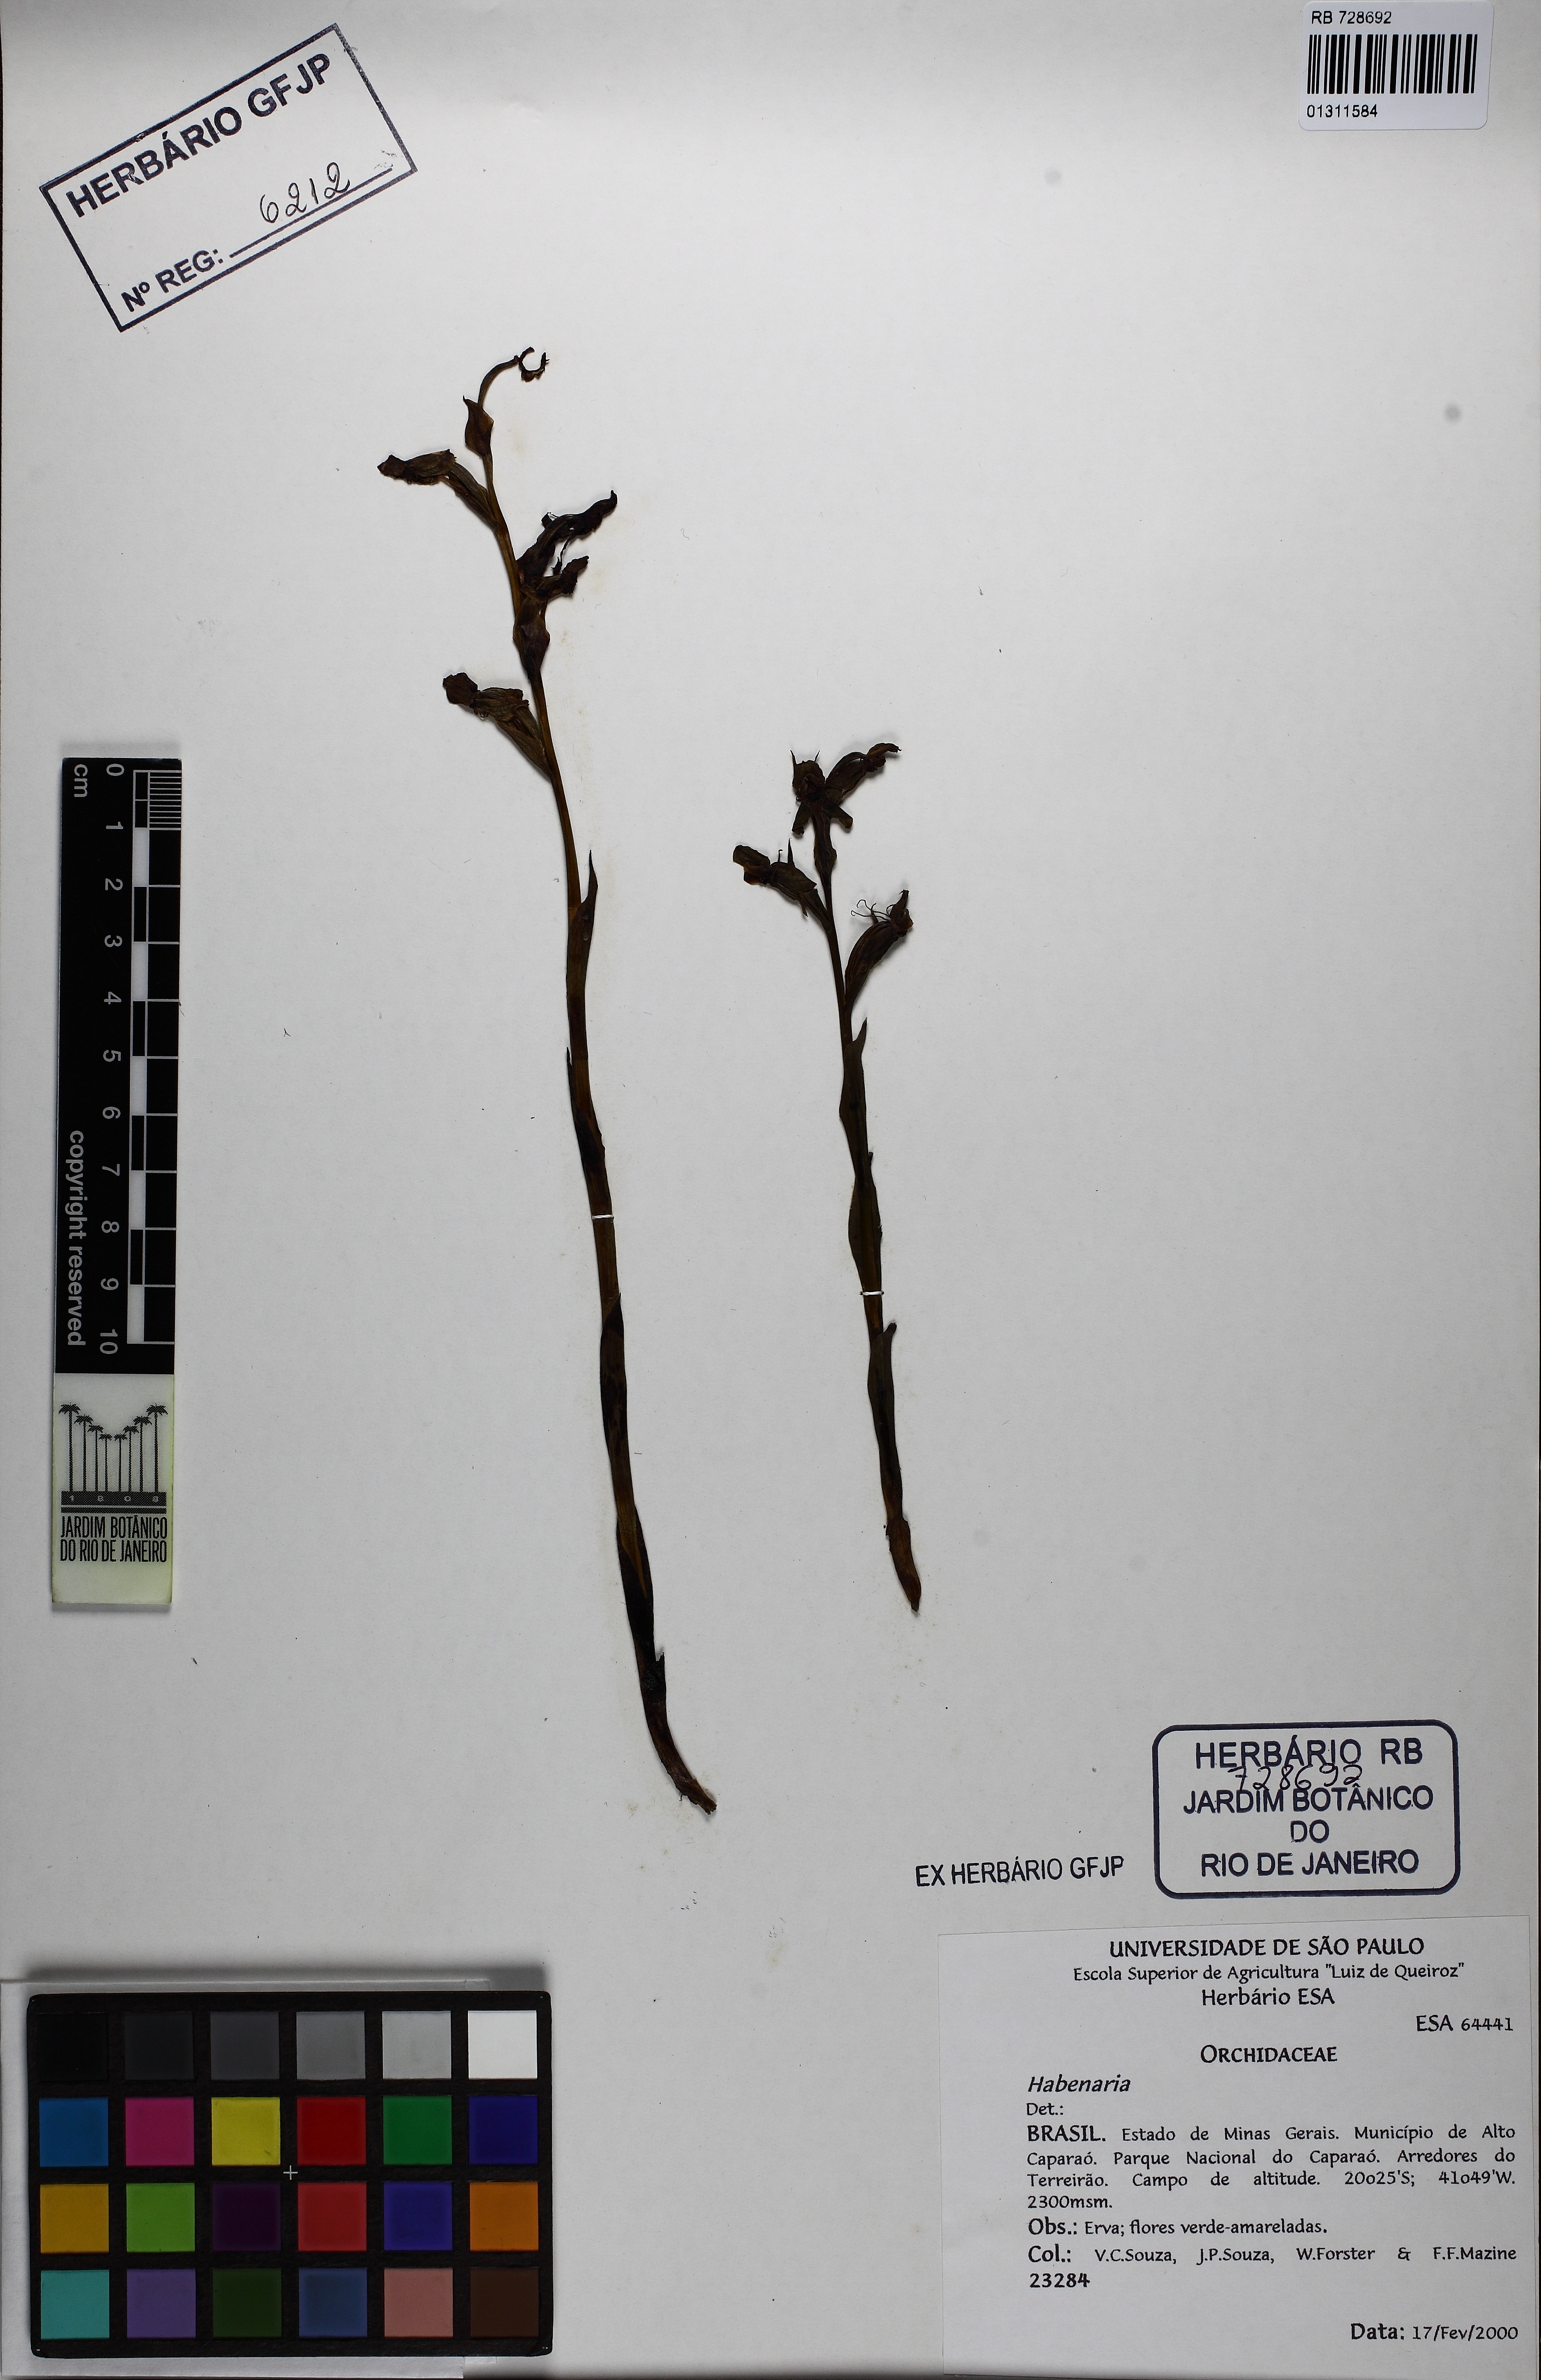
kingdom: Plantae
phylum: Tracheophyta
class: Liliopsida
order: Asparagales
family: Orchidaceae
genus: Habenaria
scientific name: Habenaria rolfeana
